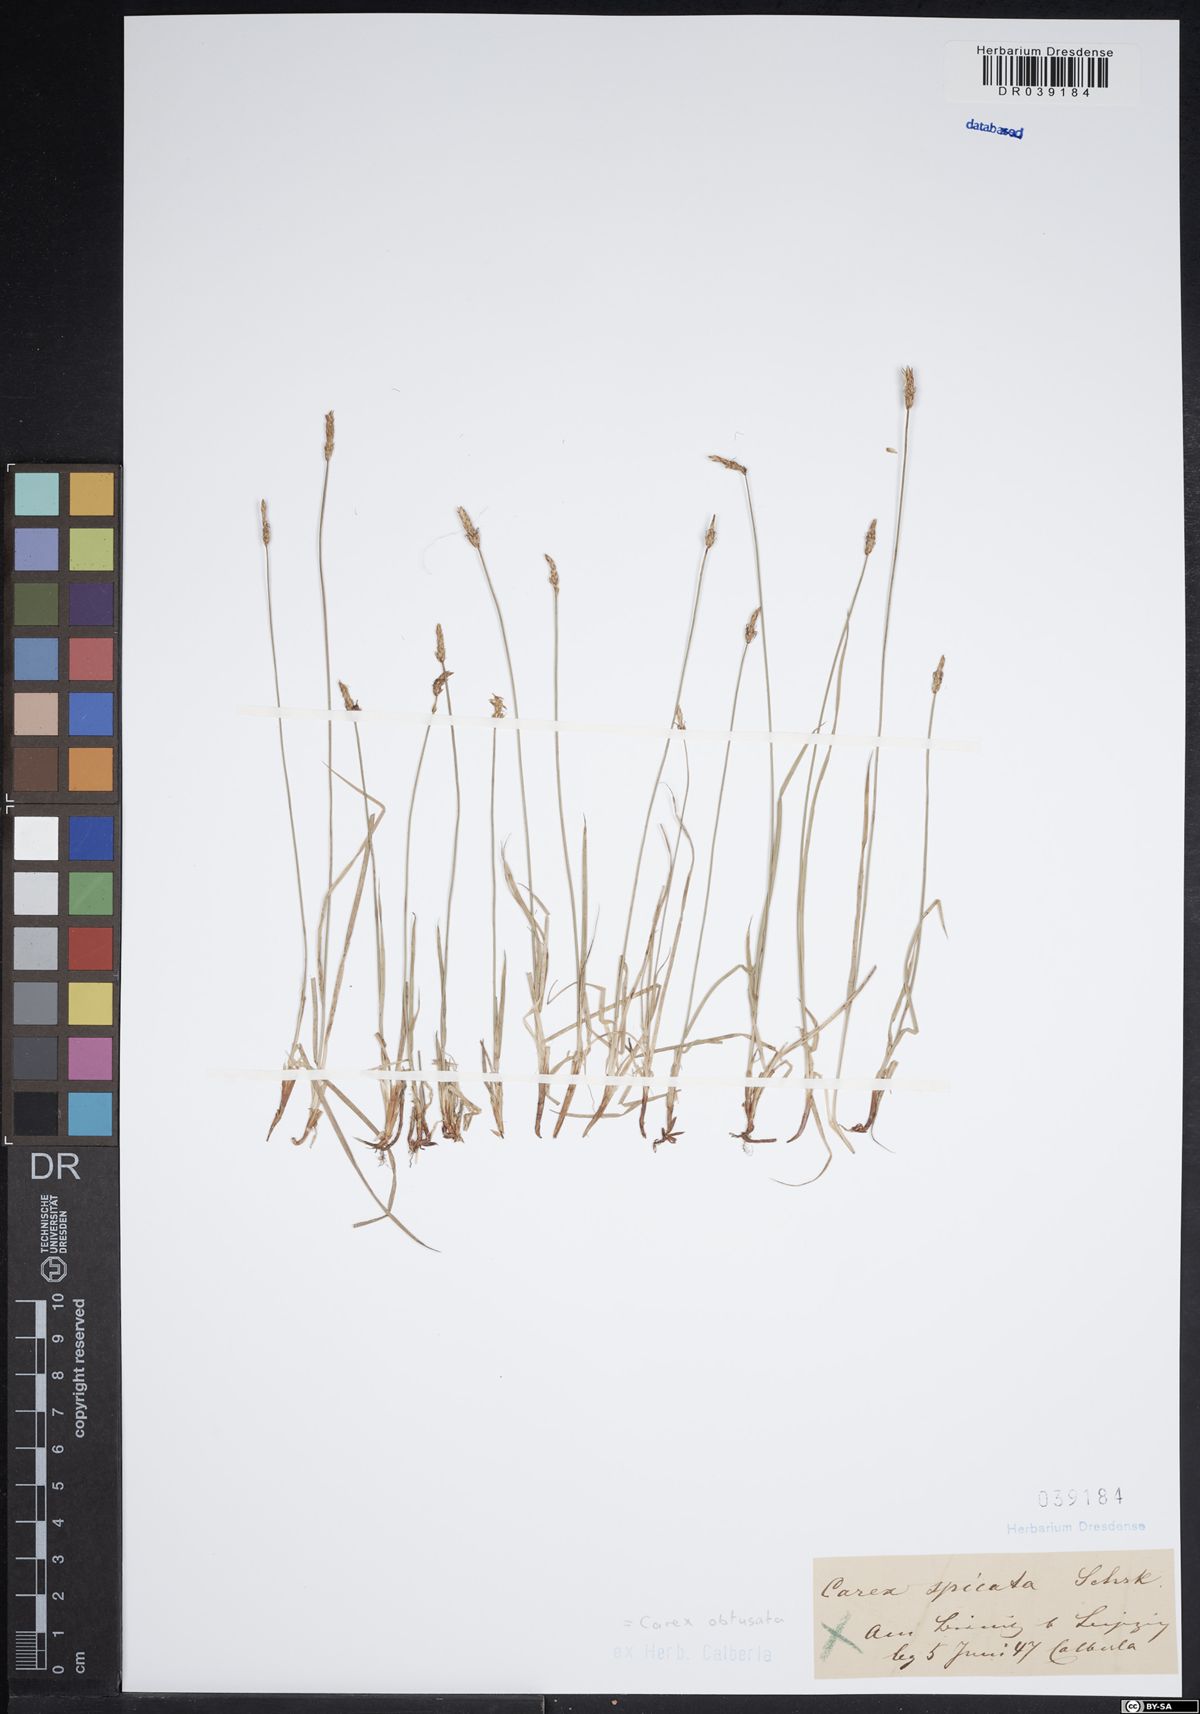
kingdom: Plantae
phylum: Tracheophyta
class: Liliopsida
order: Poales
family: Cyperaceae
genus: Carex
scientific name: Carex obtusata
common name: Blunt sedge
